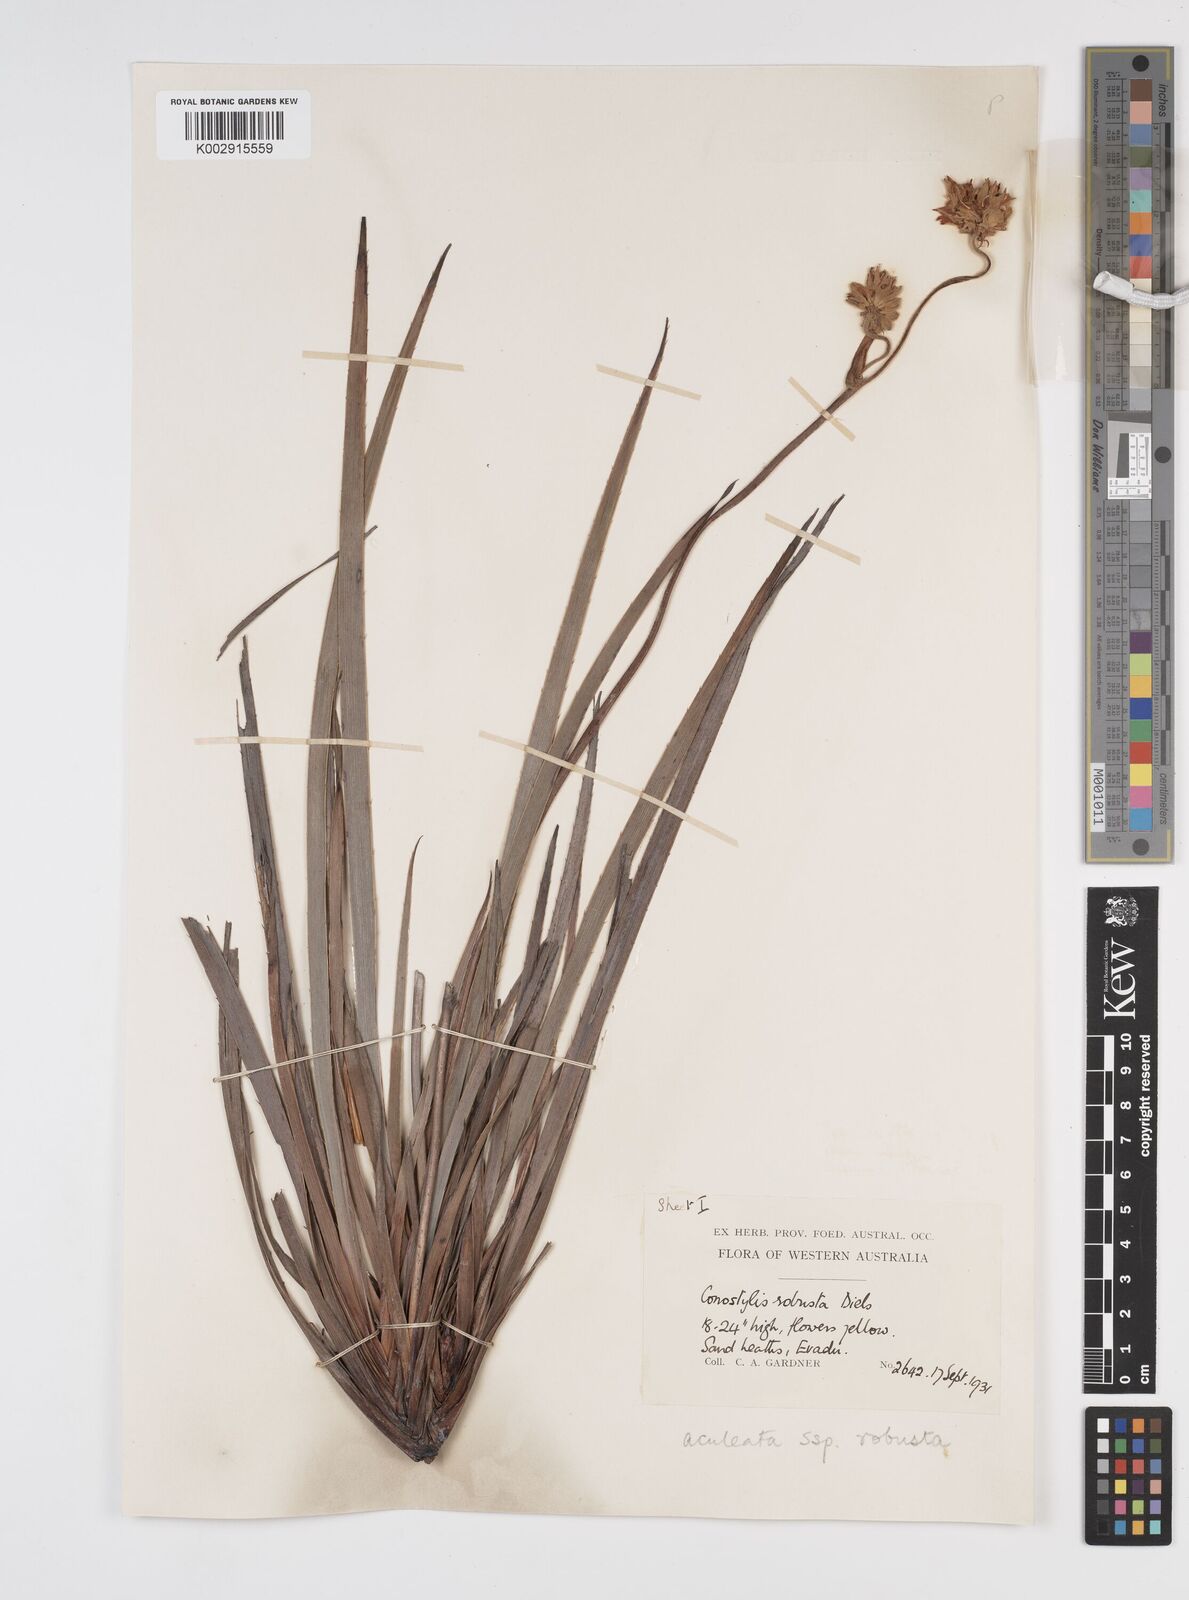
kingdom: Plantae
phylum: Tracheophyta
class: Liliopsida
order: Commelinales
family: Haemodoraceae
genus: Conostylis
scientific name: Conostylis robusta
